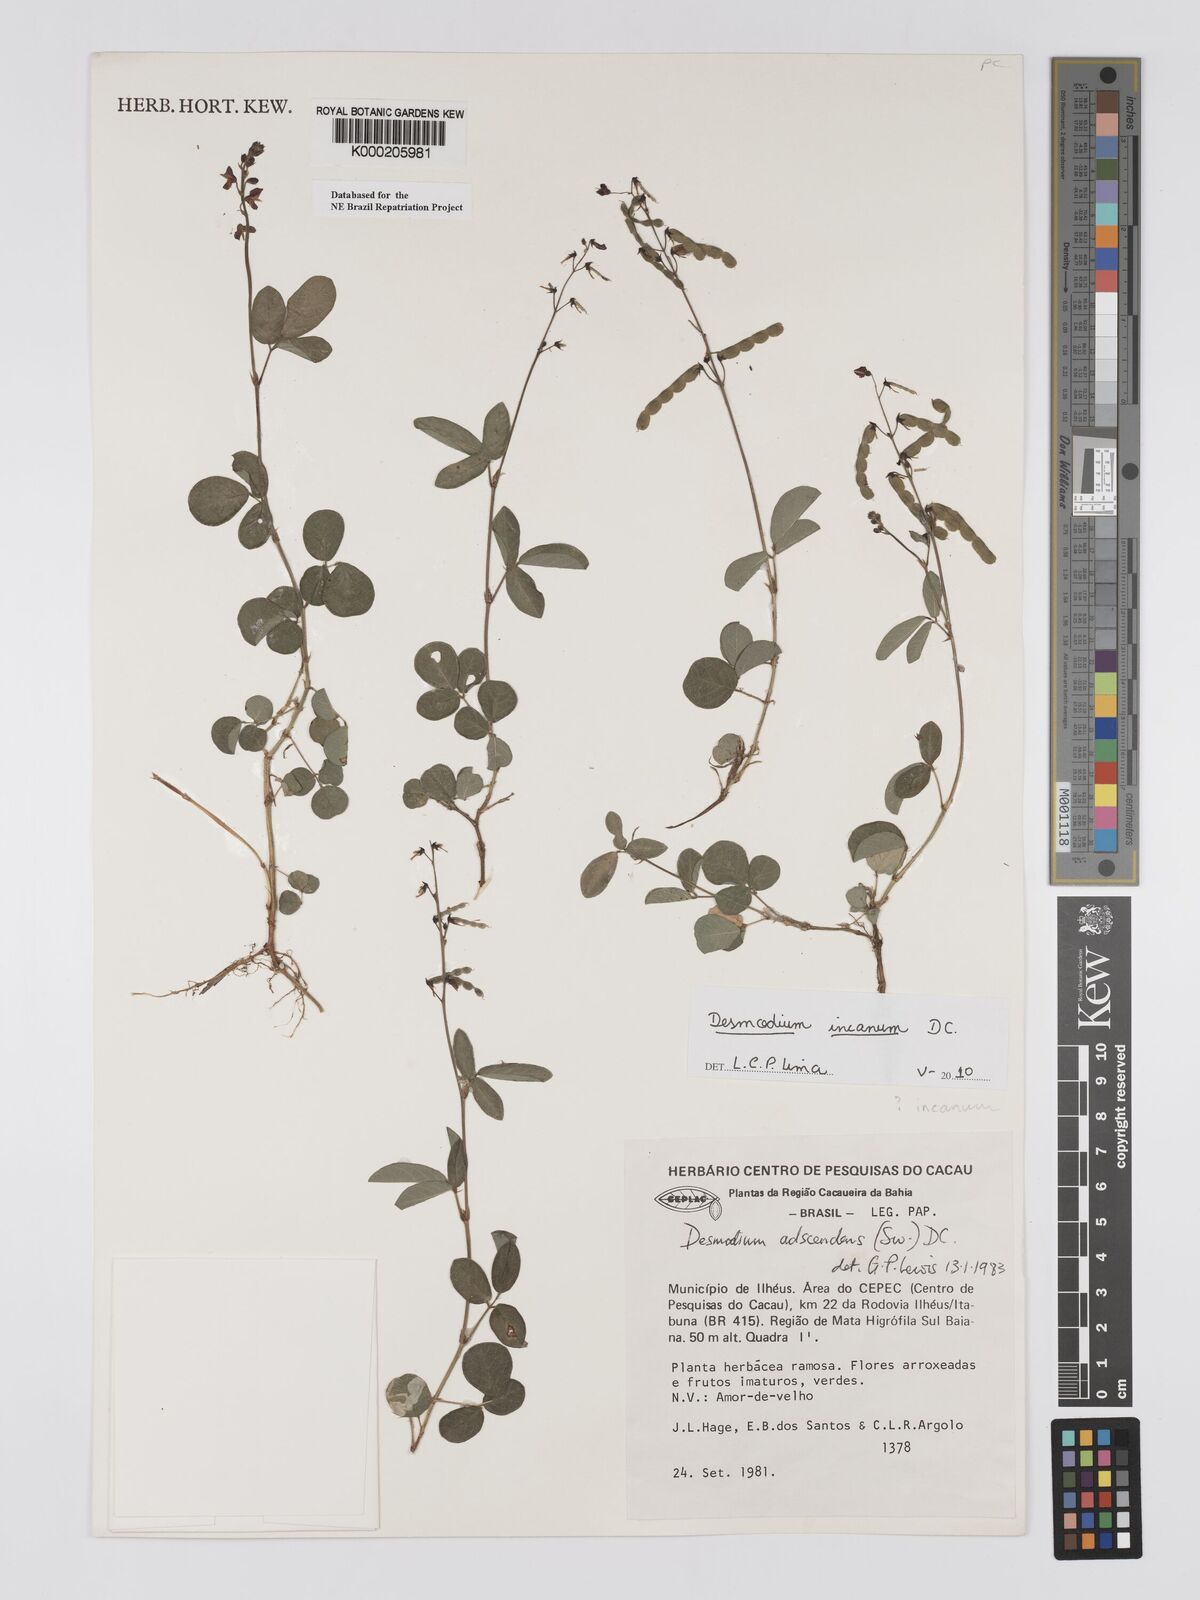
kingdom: Plantae
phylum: Tracheophyta
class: Magnoliopsida
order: Fabales
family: Fabaceae
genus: Grona
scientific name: Grona adscendens
